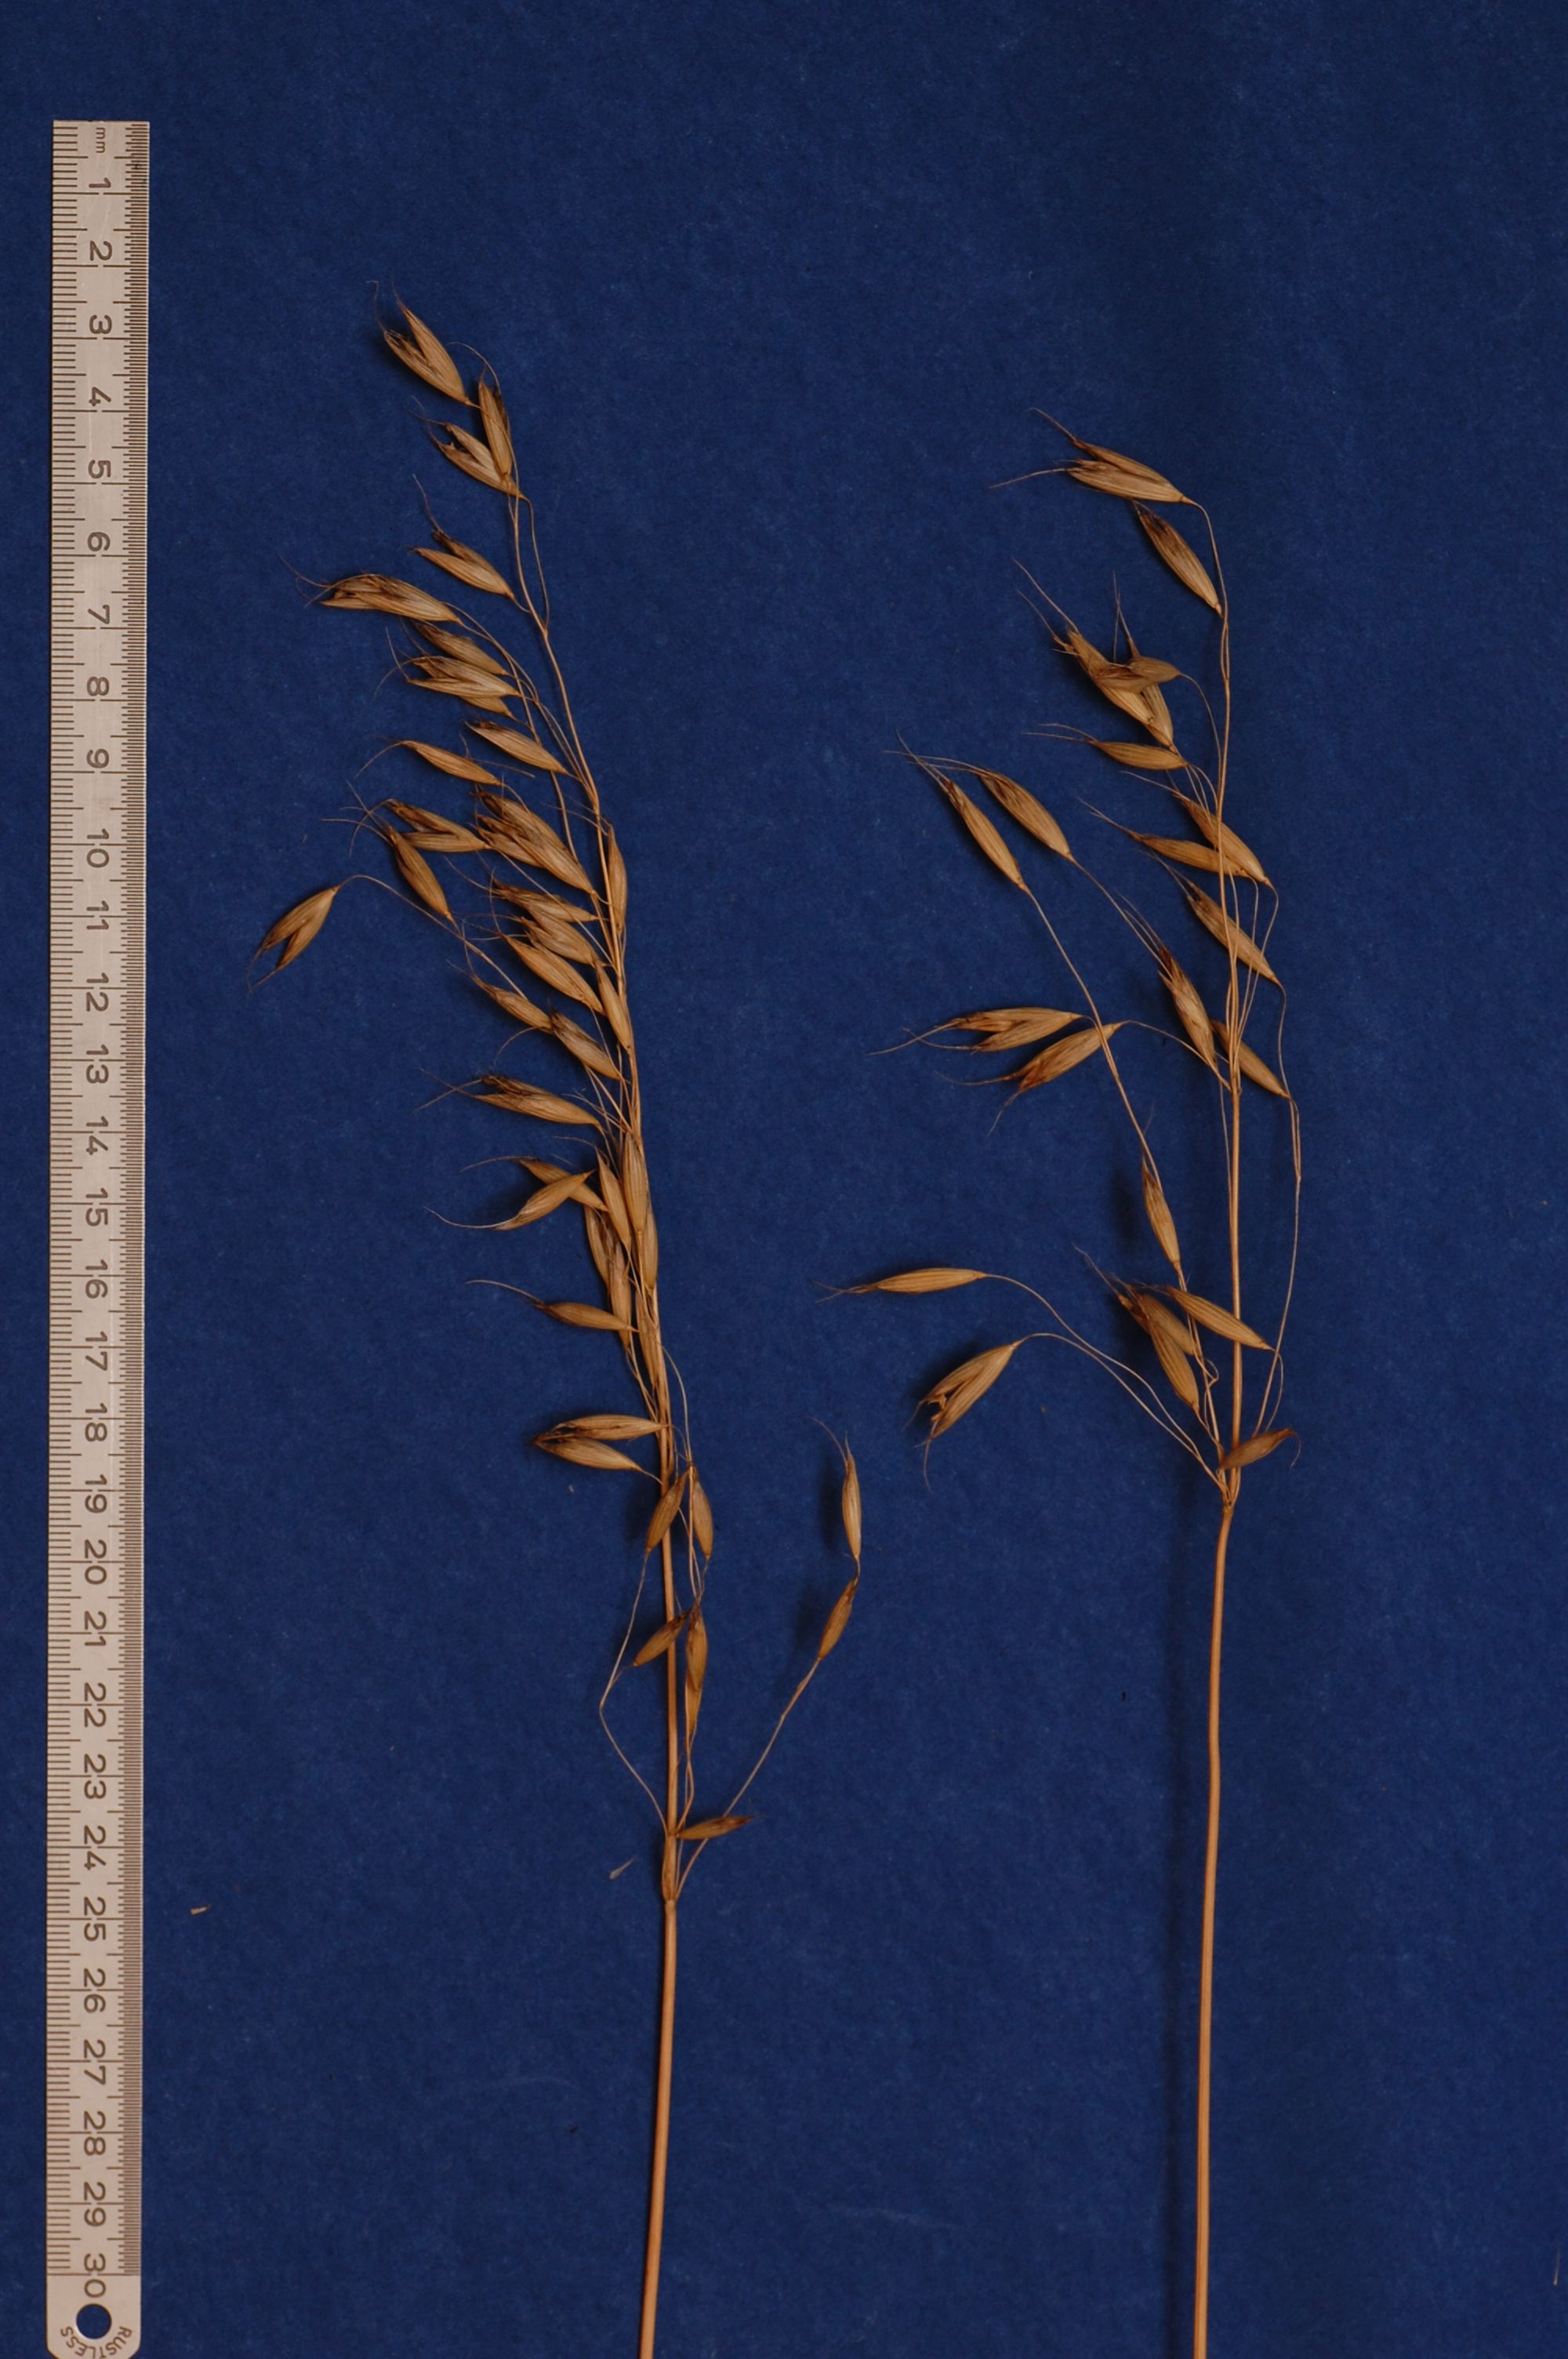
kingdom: Plantae
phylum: Tracheophyta
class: Liliopsida
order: Poales
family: Poaceae
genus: Avena
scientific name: Avena brevis
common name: Short oat
